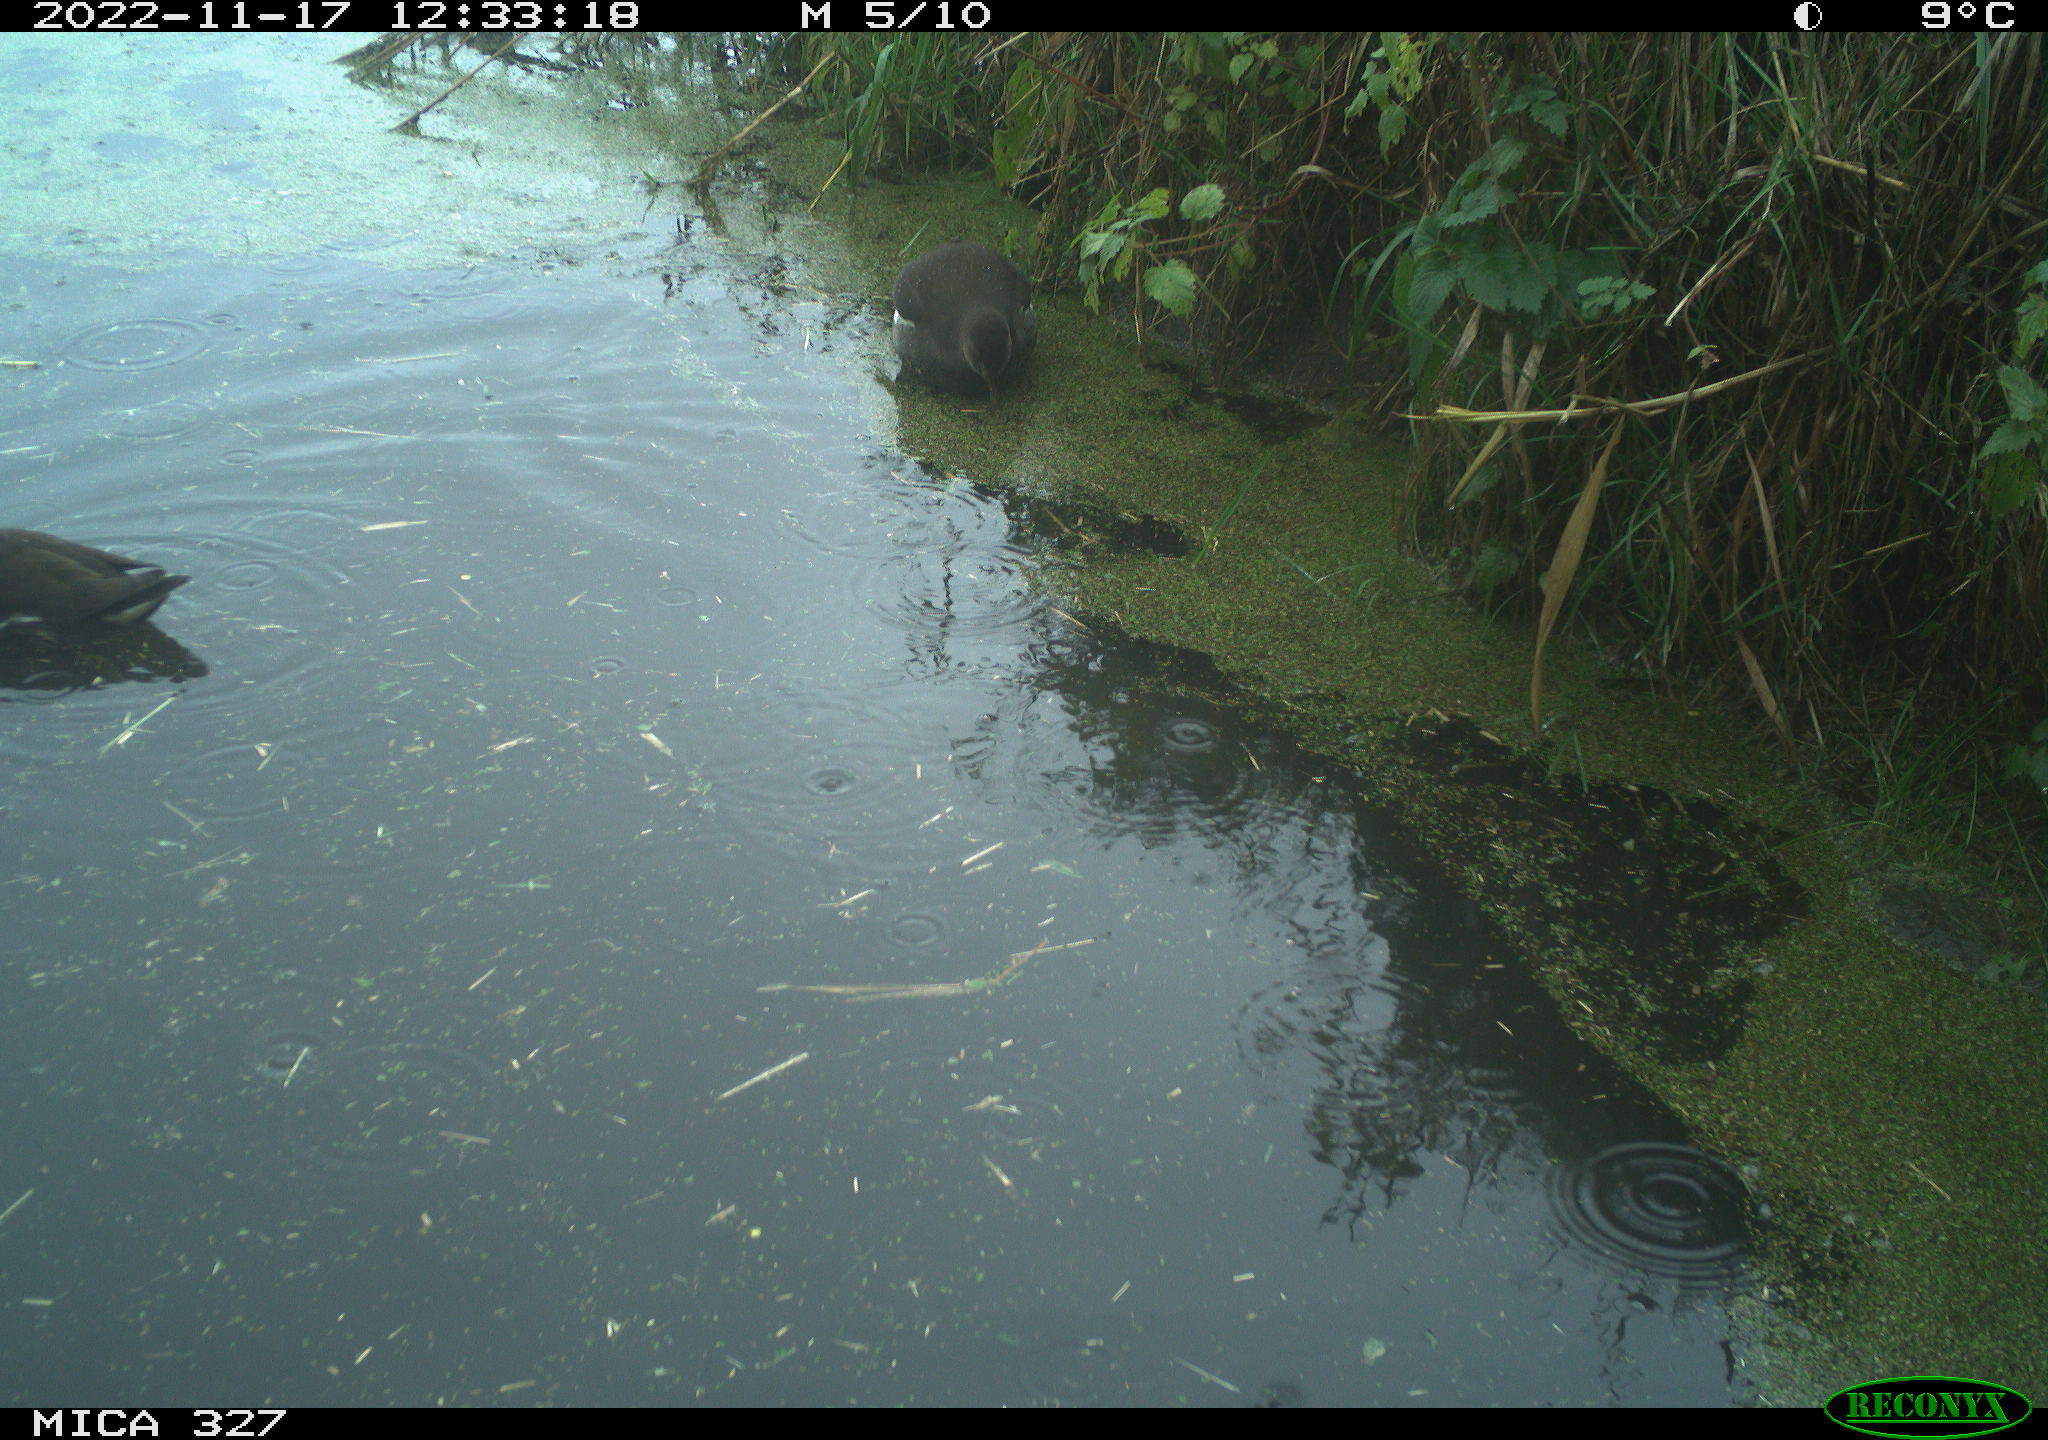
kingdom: Animalia
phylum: Chordata
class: Aves
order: Gruiformes
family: Rallidae
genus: Gallinula
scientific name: Gallinula chloropus
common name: Common moorhen
